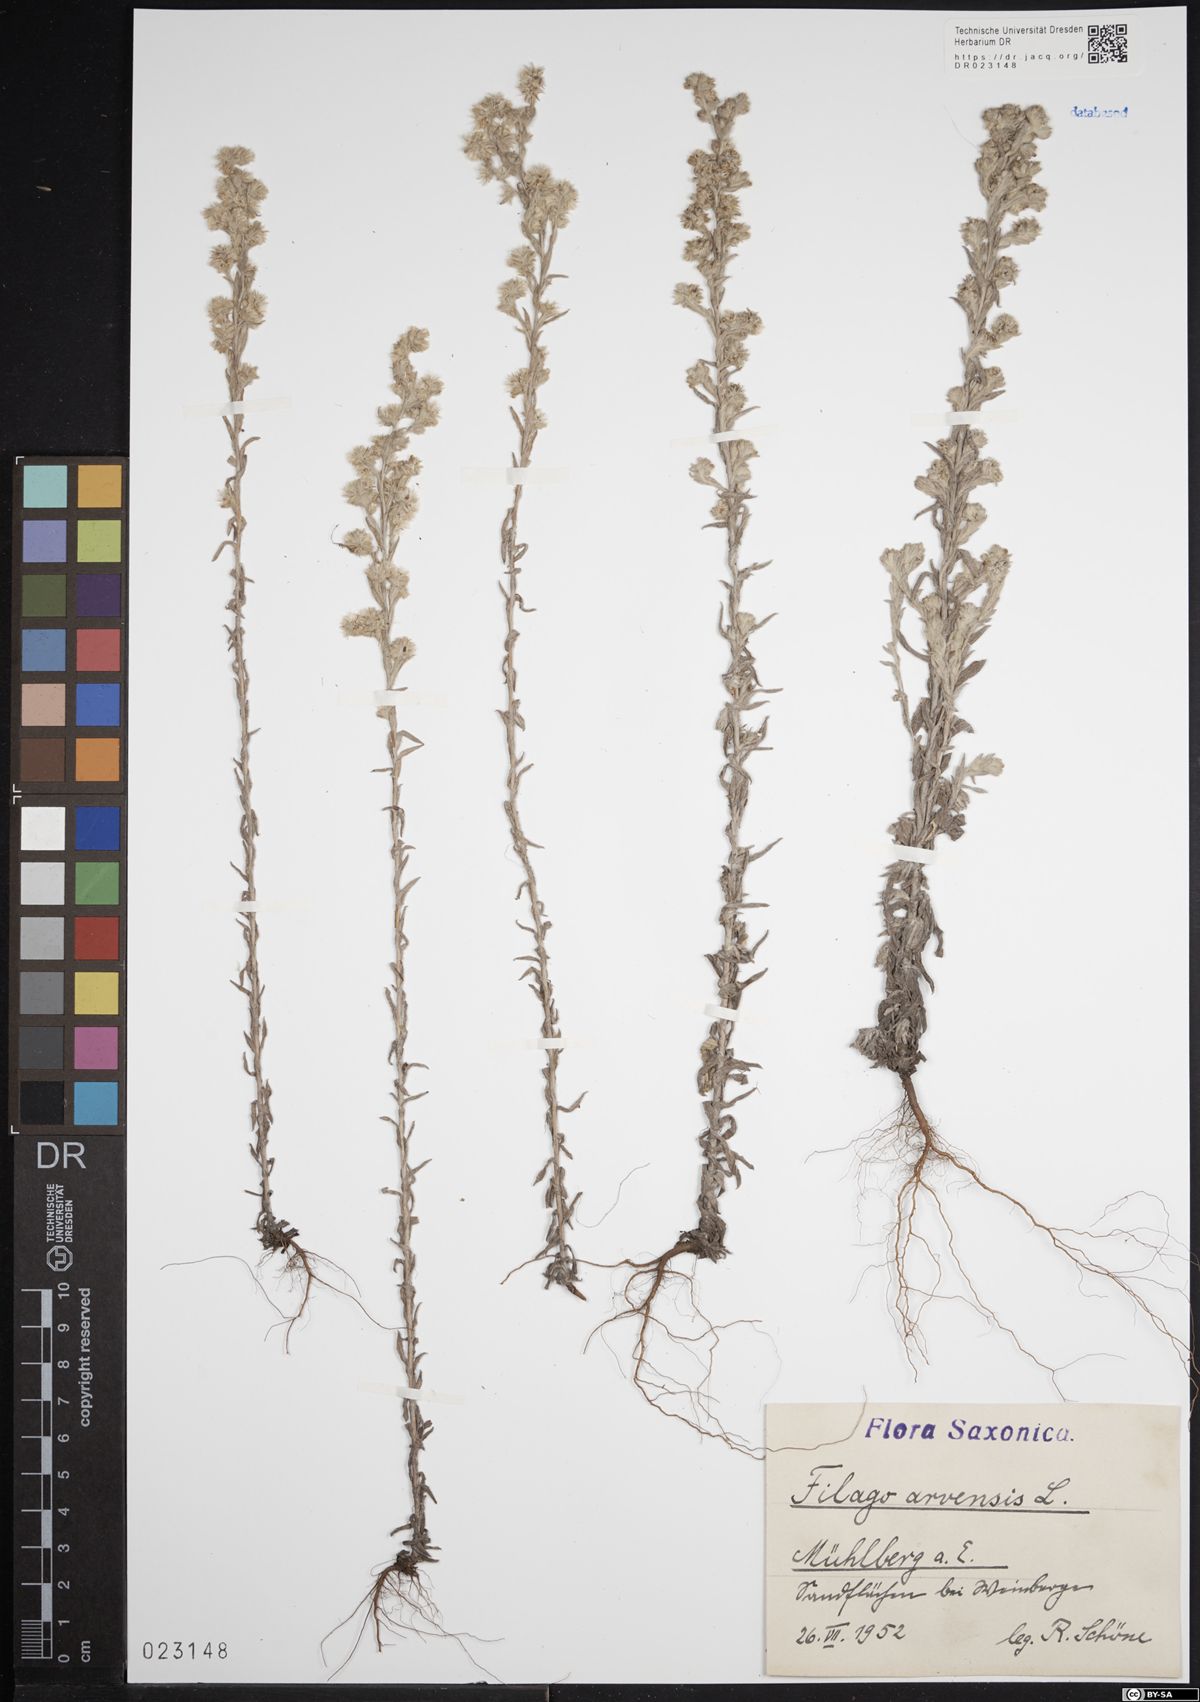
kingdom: Plantae
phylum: Tracheophyta
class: Magnoliopsida
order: Asterales
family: Asteraceae
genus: Filago
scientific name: Filago arvensis
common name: Field cudweed
